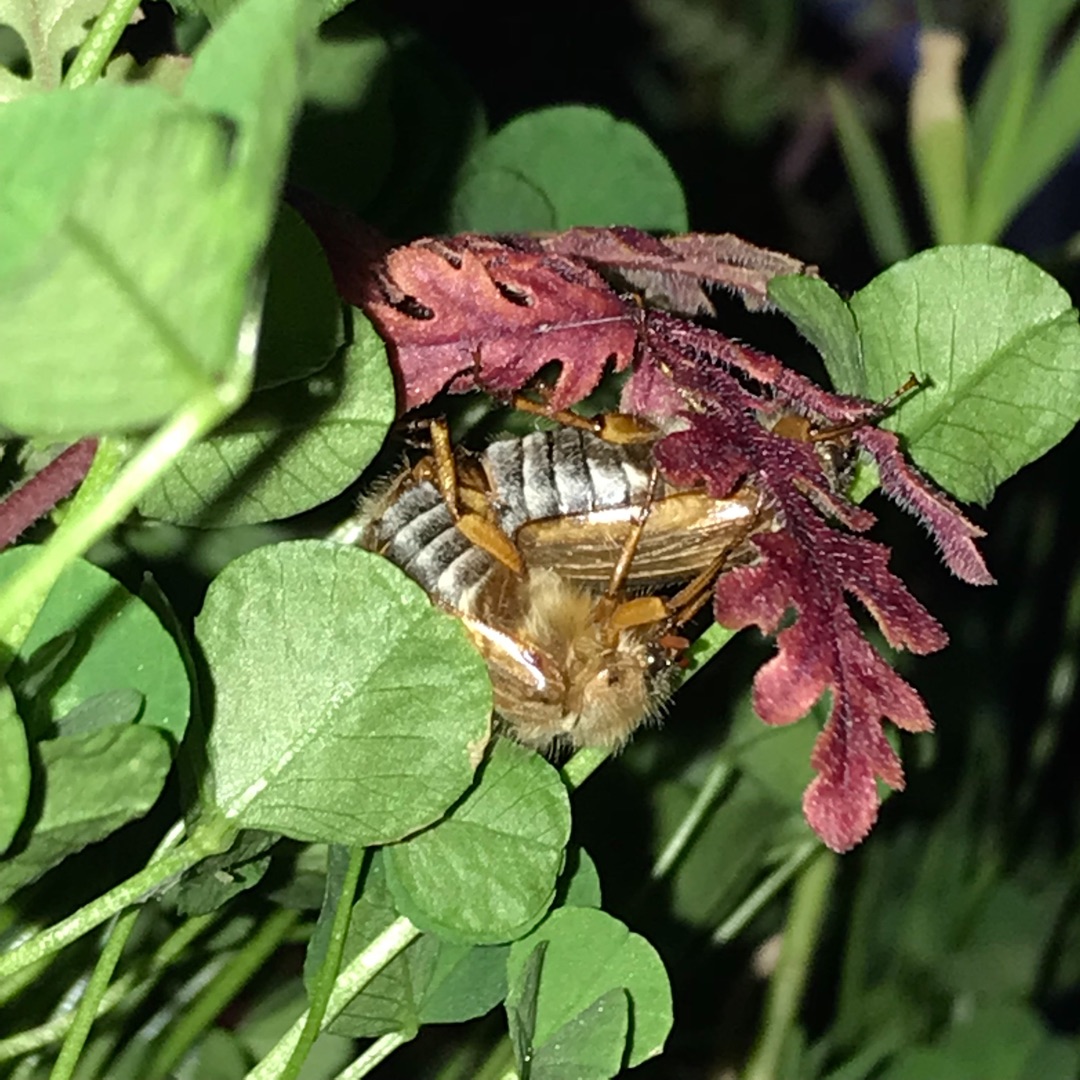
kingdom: Animalia
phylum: Arthropoda
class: Insecta
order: Coleoptera
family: Scarabaeidae
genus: Amphimallon
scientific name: Amphimallon solstitiale
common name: Sankthansoldenborre
